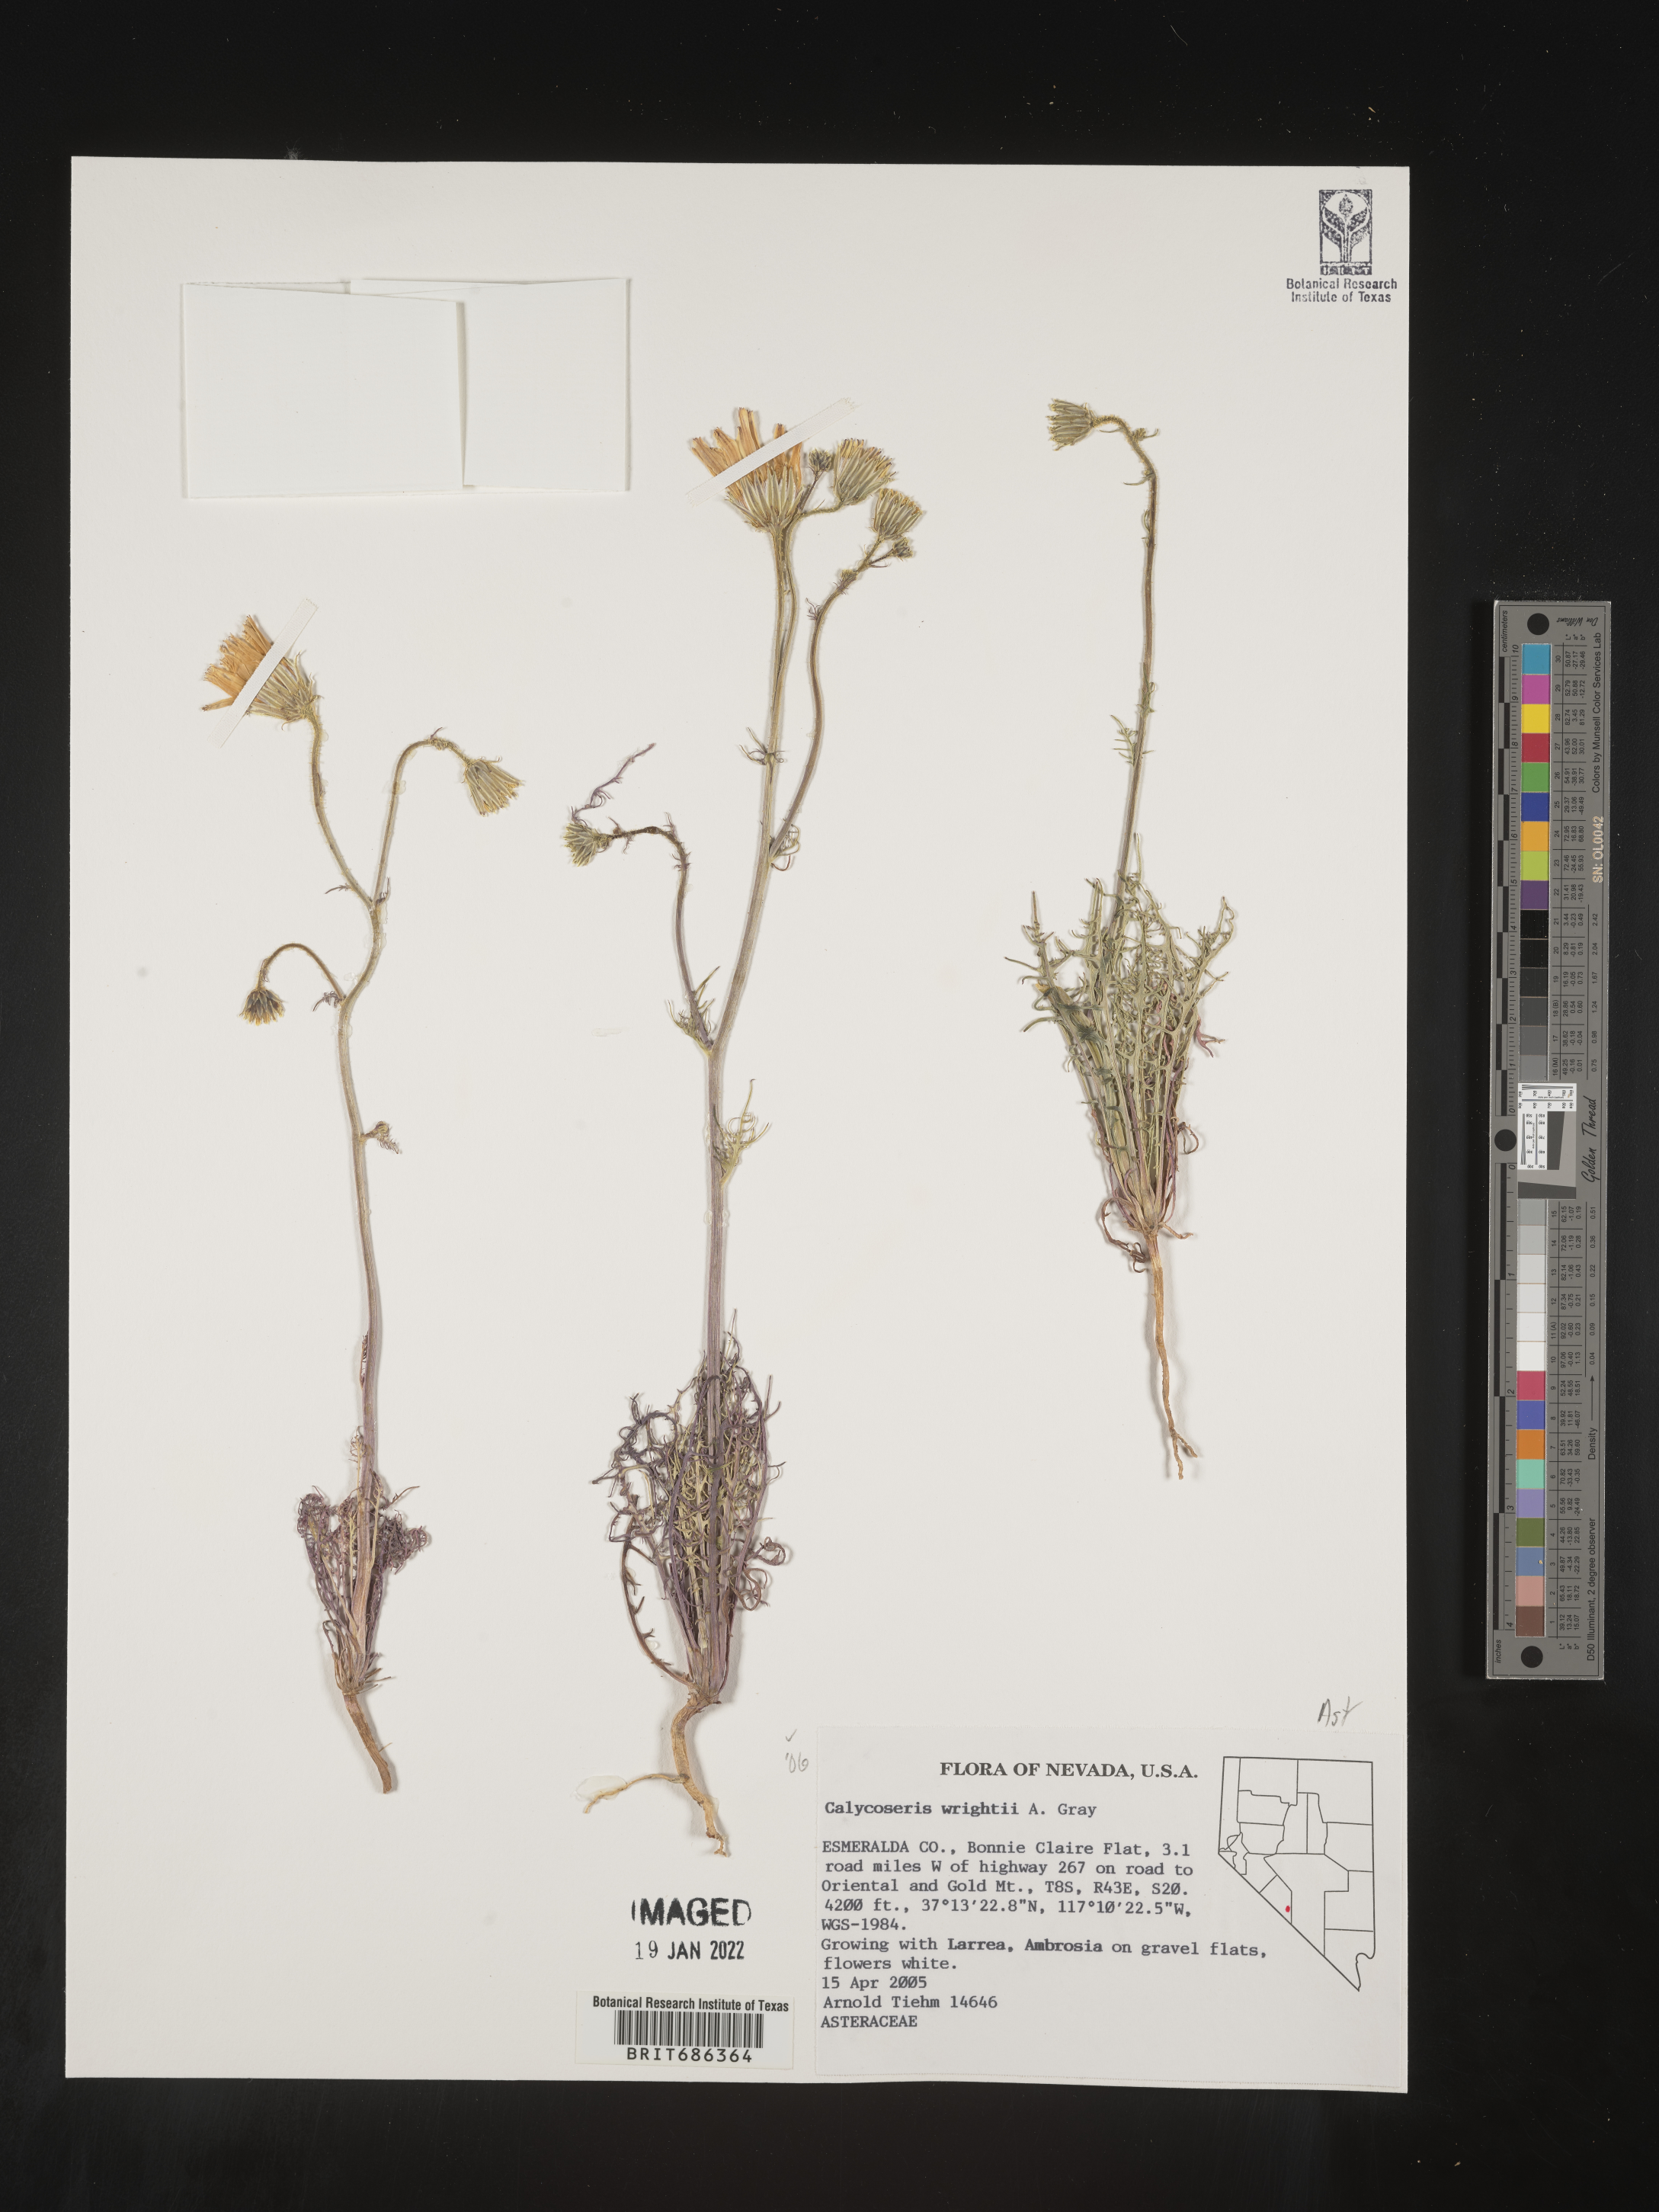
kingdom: Plantae
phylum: Tracheophyta
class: Magnoliopsida
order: Asterales
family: Asteraceae
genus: Calycoseris
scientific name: Calycoseris
